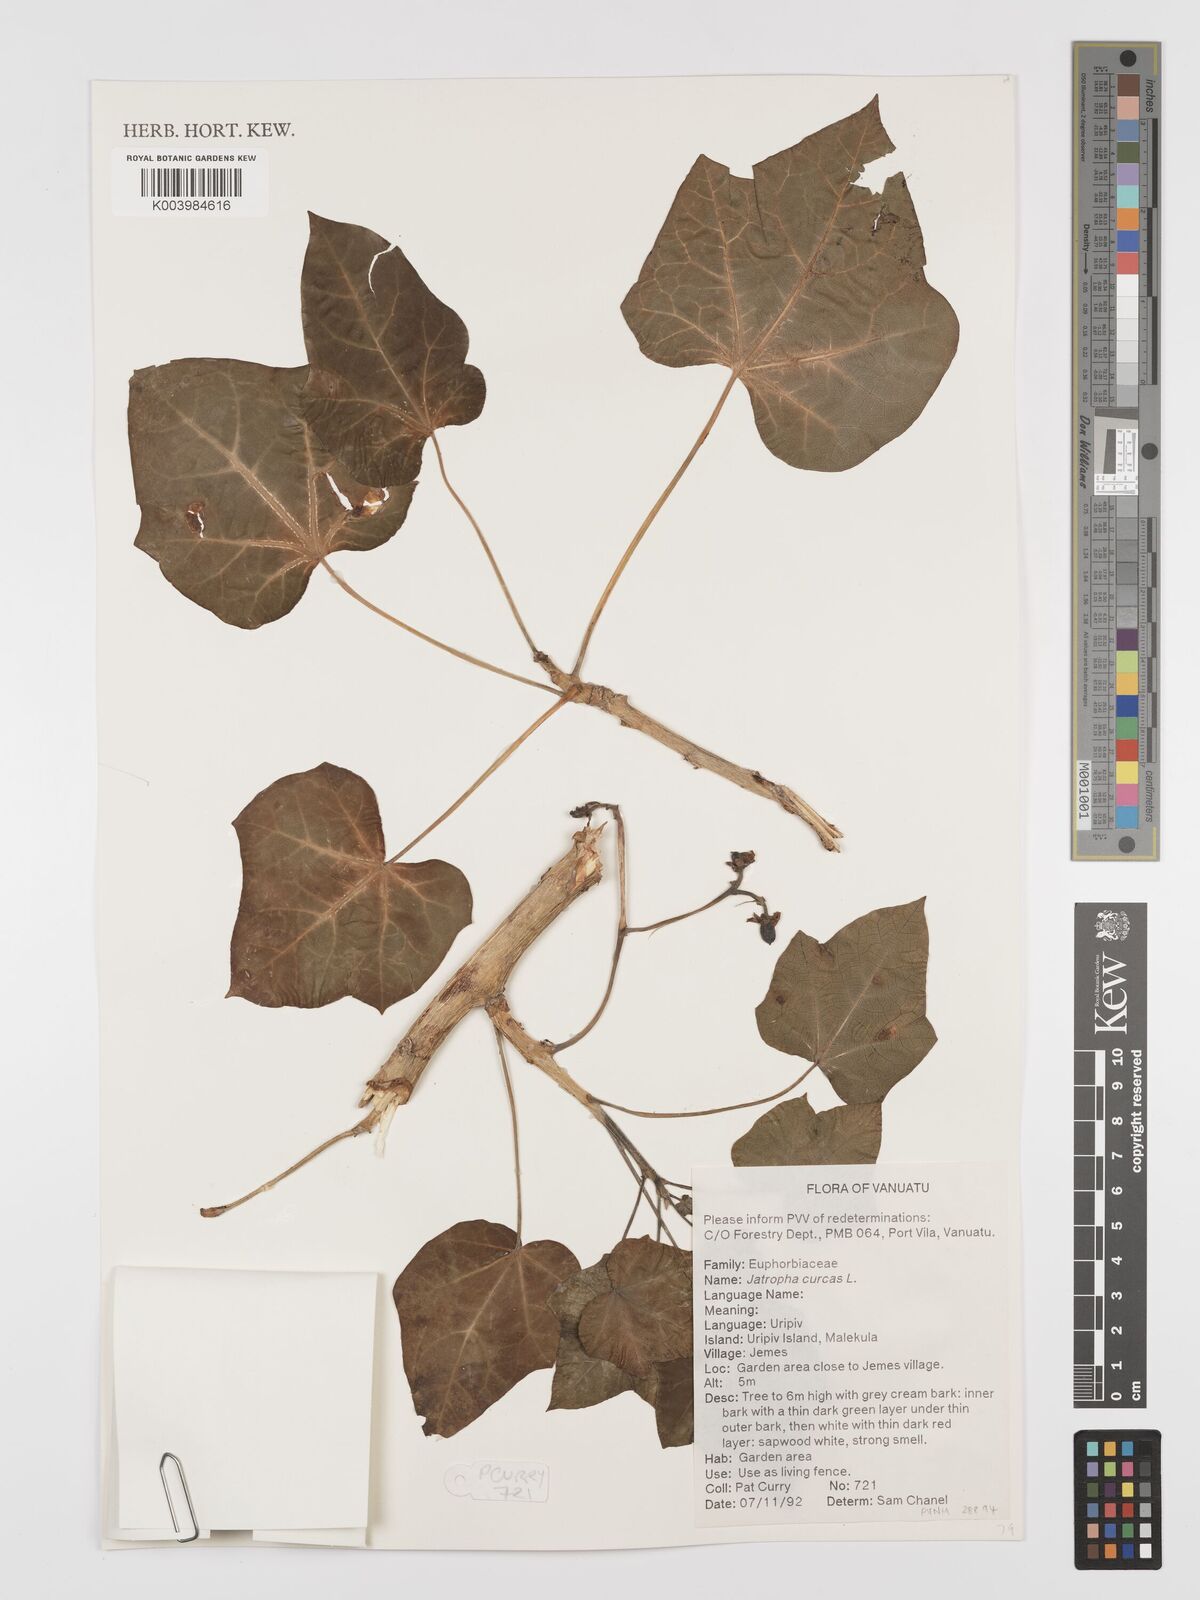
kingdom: Plantae
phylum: Tracheophyta
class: Magnoliopsida
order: Malpighiales
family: Euphorbiaceae
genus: Jatropha
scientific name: Jatropha curcas
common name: Barbados nut
